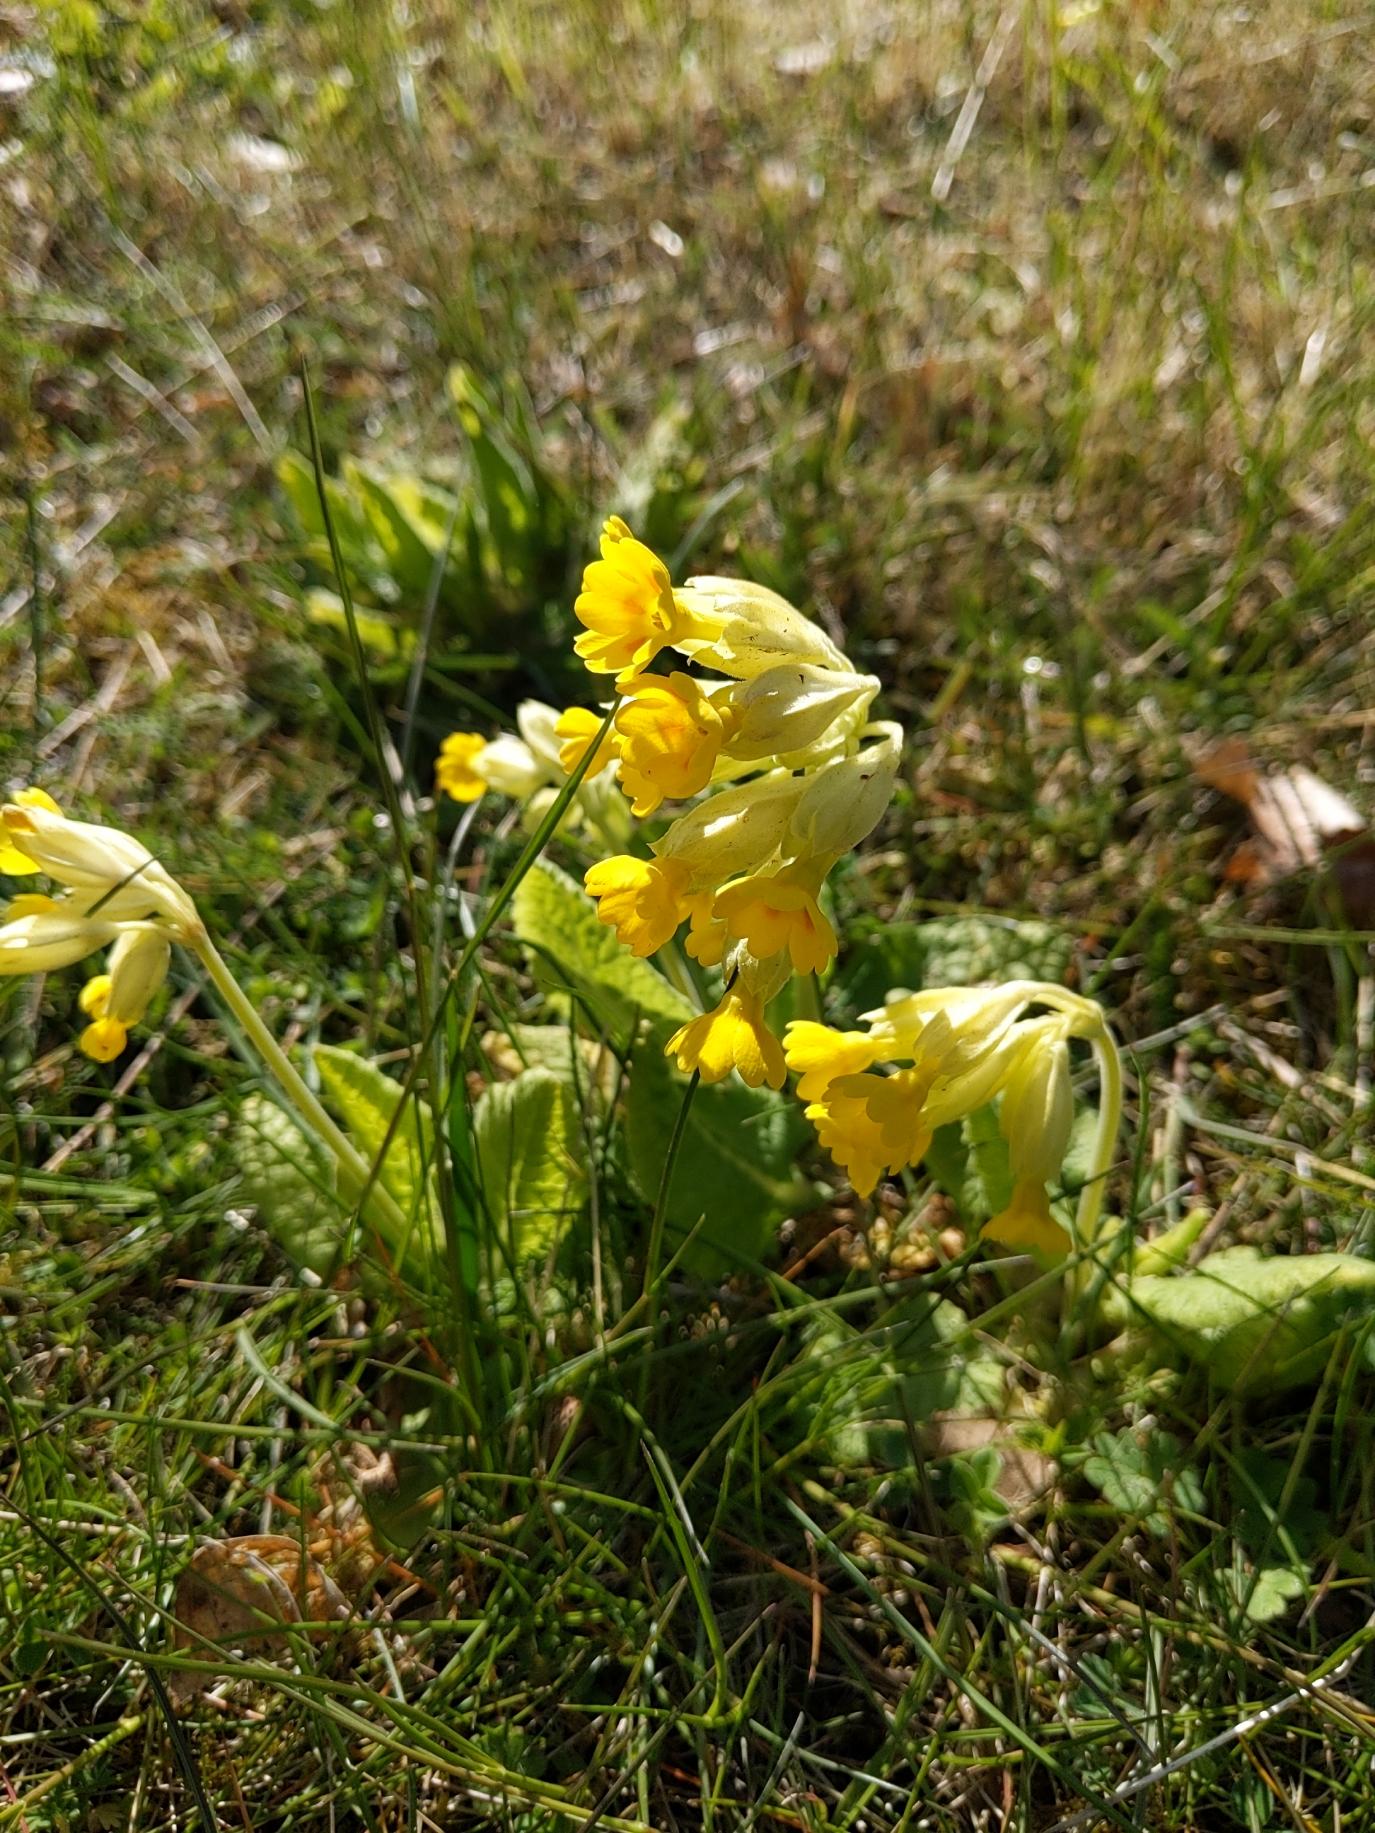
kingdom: Plantae
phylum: Tracheophyta
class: Magnoliopsida
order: Ericales
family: Primulaceae
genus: Primula
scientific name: Primula veris
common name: Hulkravet kodriver
